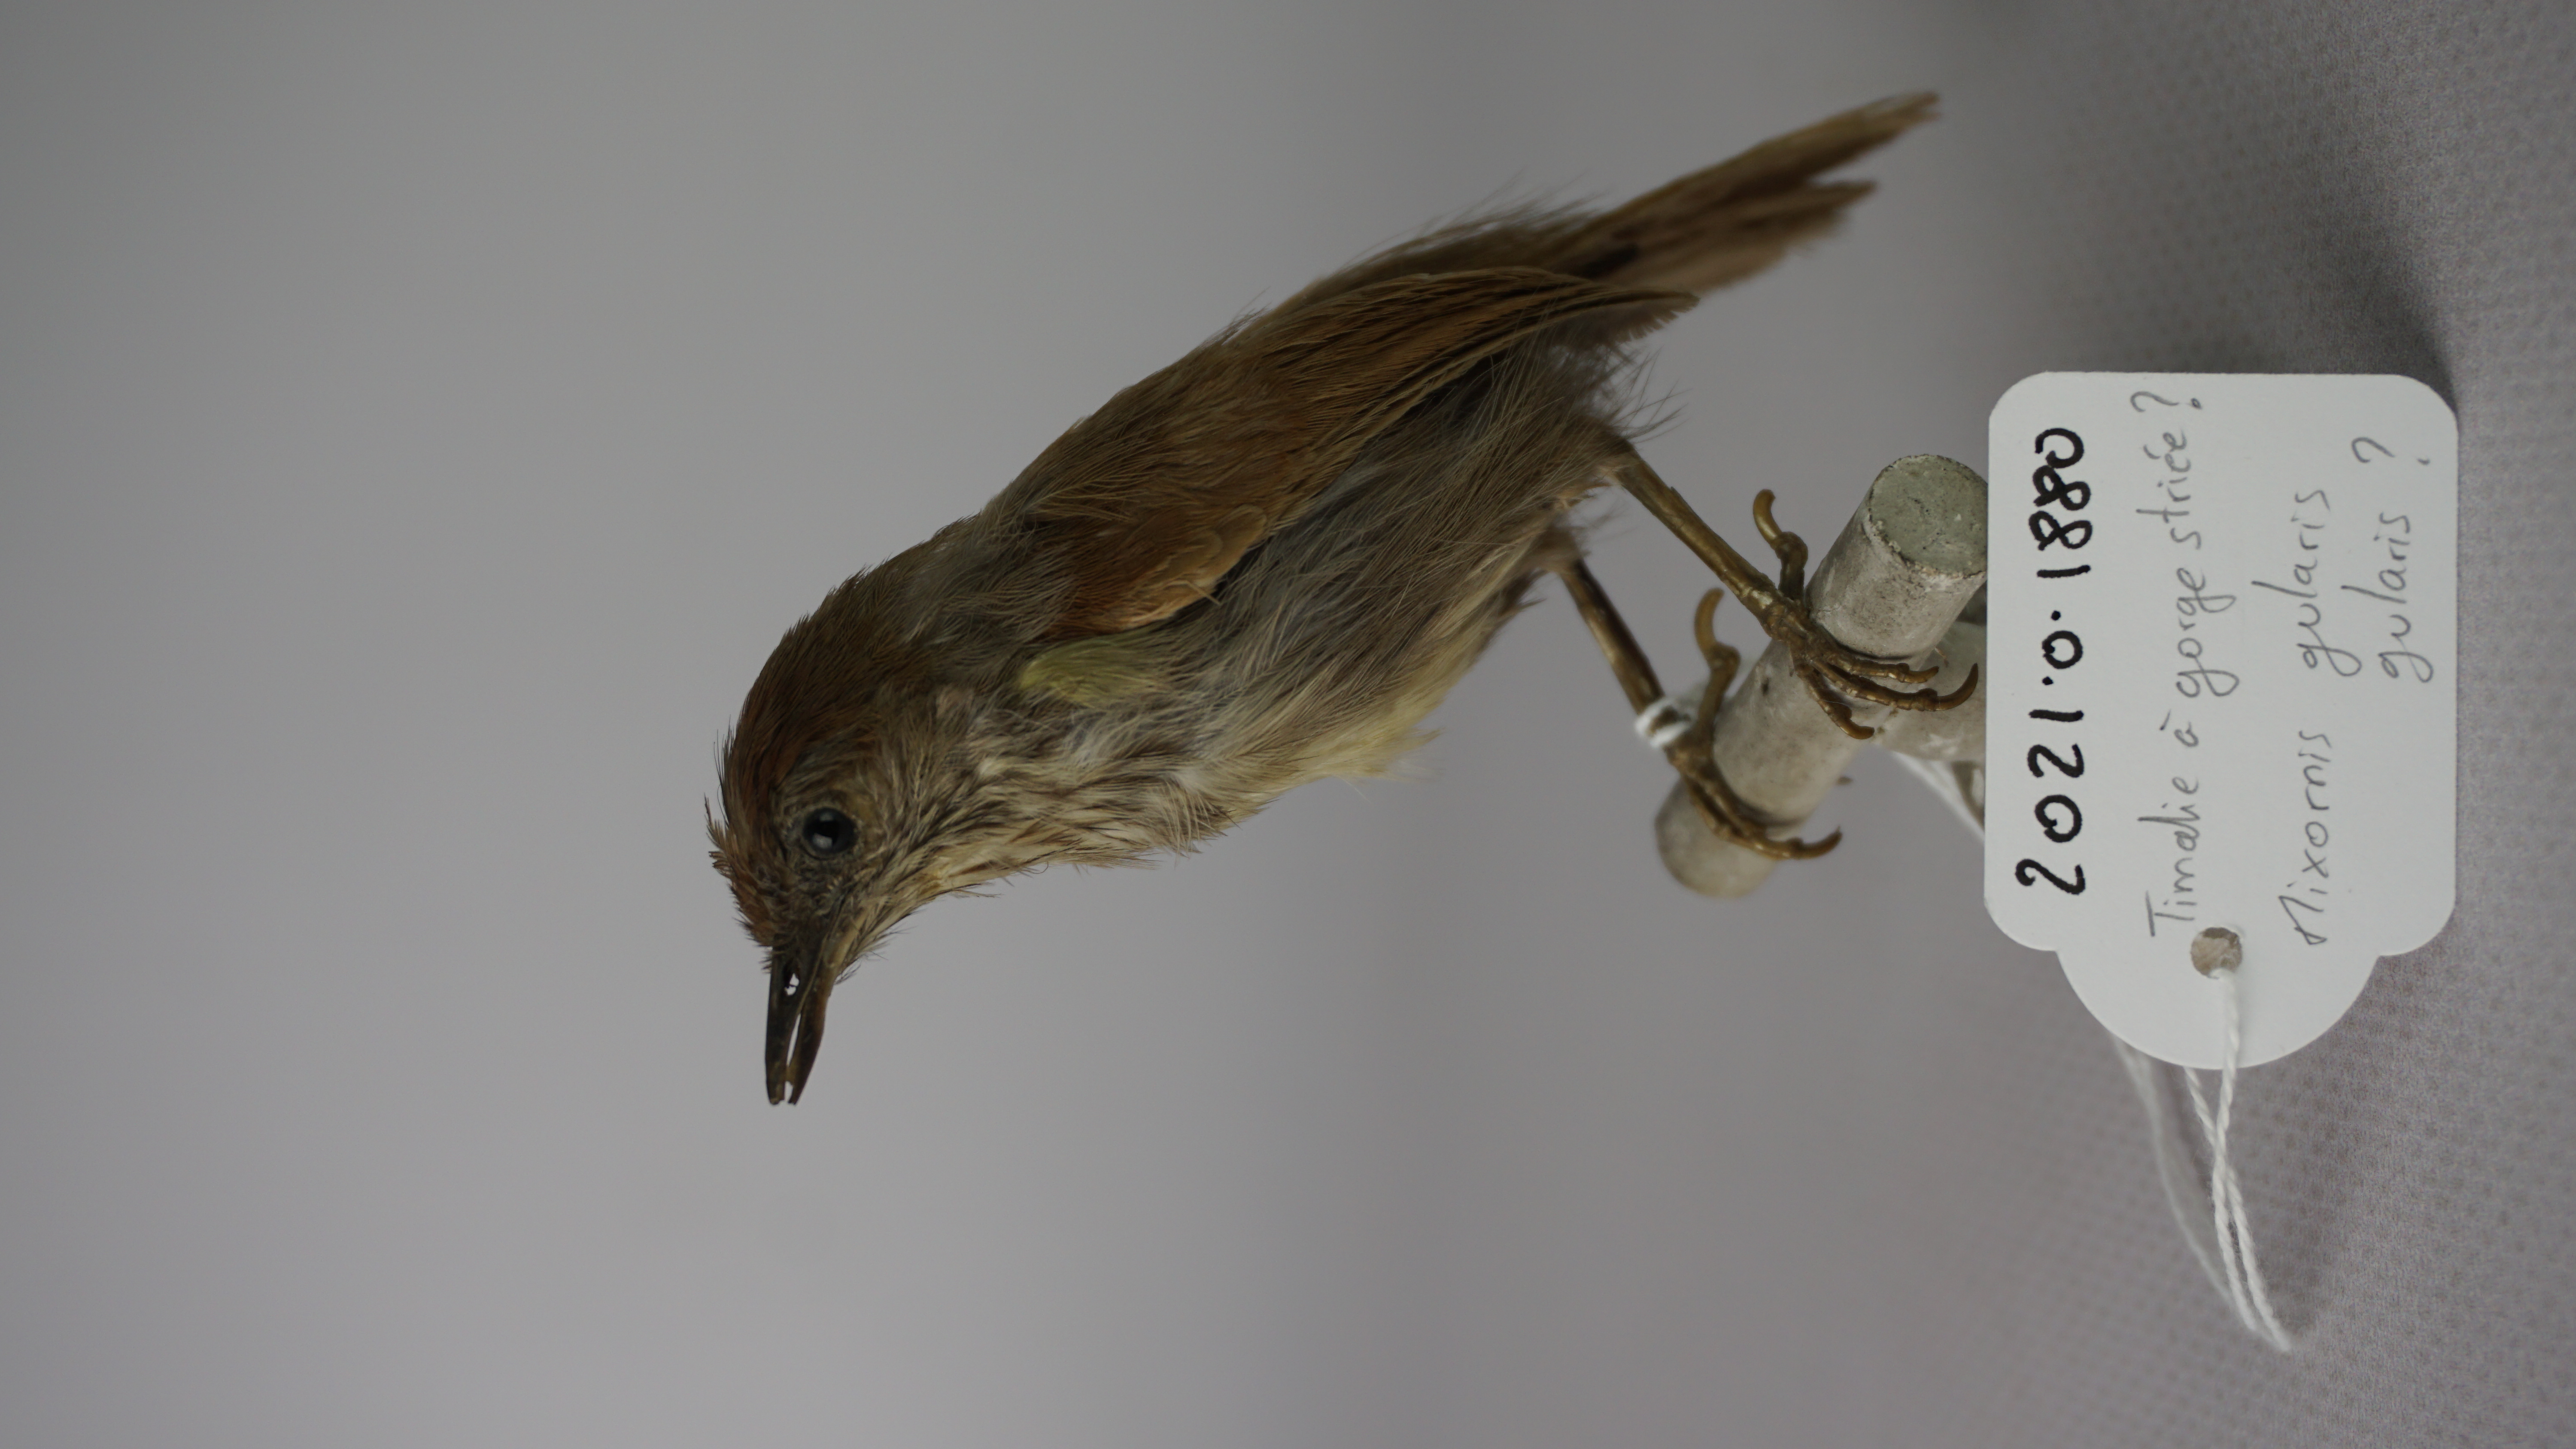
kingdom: Animalia
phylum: Chordata
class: Aves
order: Passeriformes
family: Timaliidae
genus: Macronus
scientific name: Macronus gularis
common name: Striped tit-babbler
